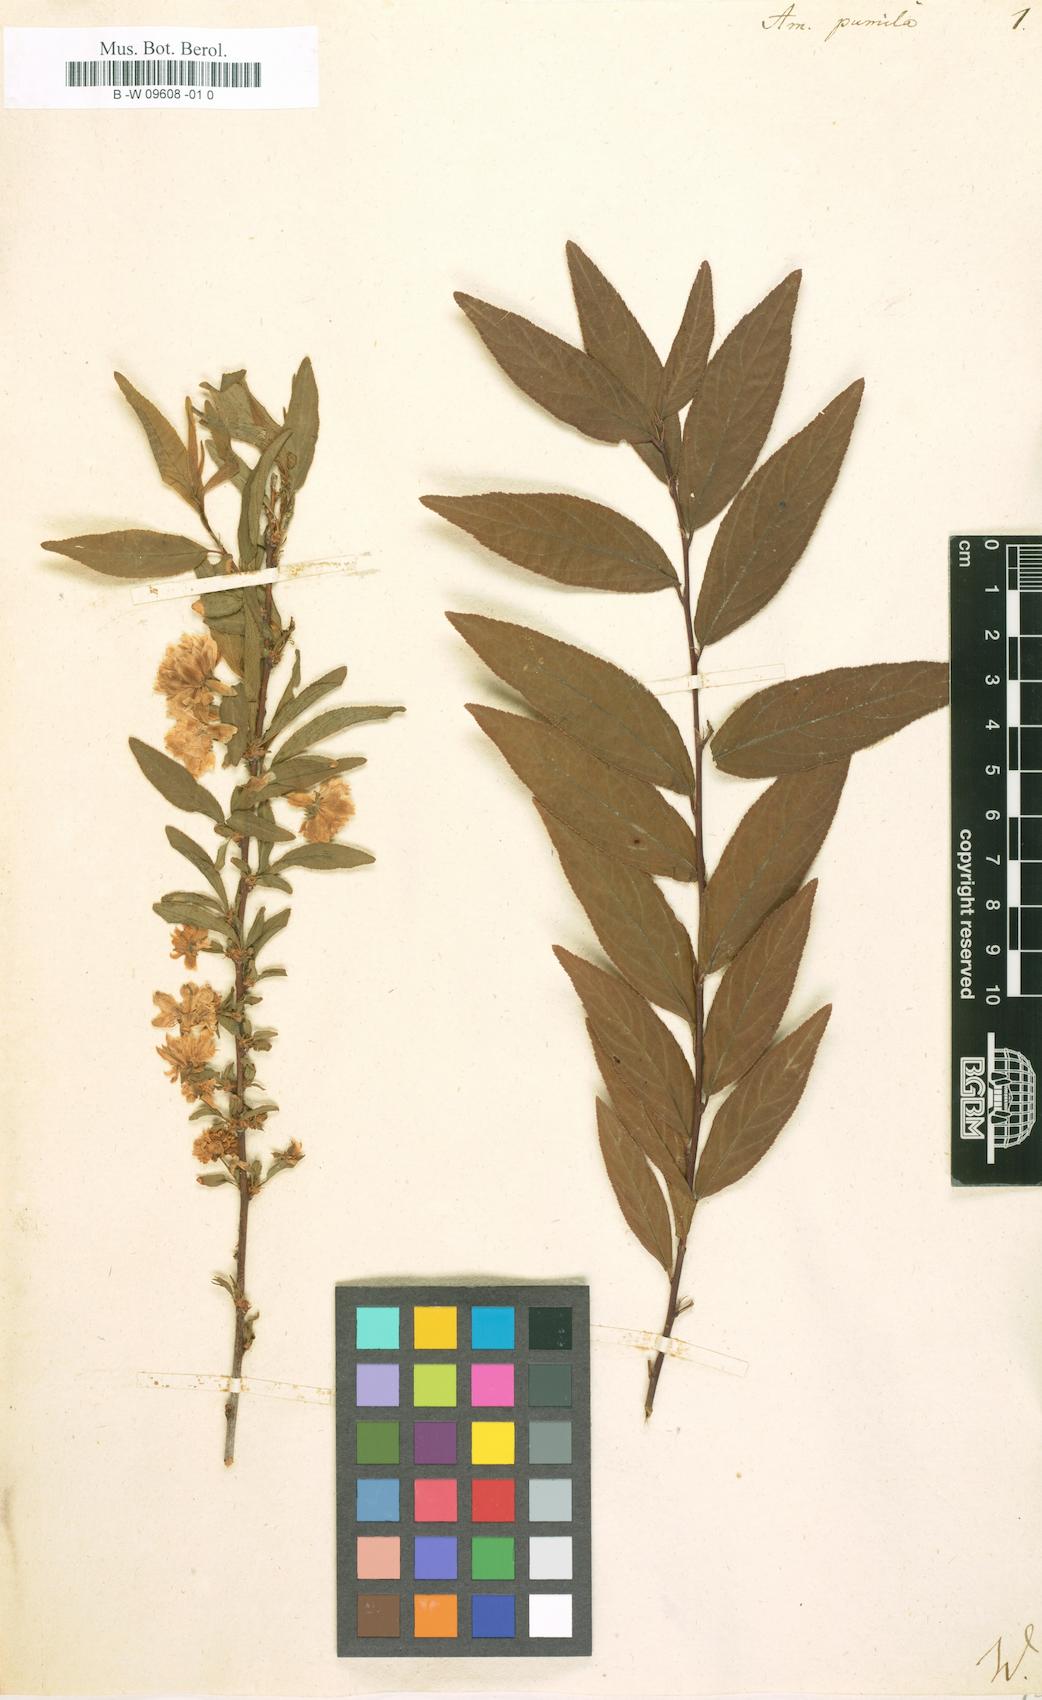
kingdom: Plantae
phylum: Tracheophyta
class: Magnoliopsida
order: Rosales
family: Rosaceae
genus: Prunus
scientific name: Prunus glandulosa
